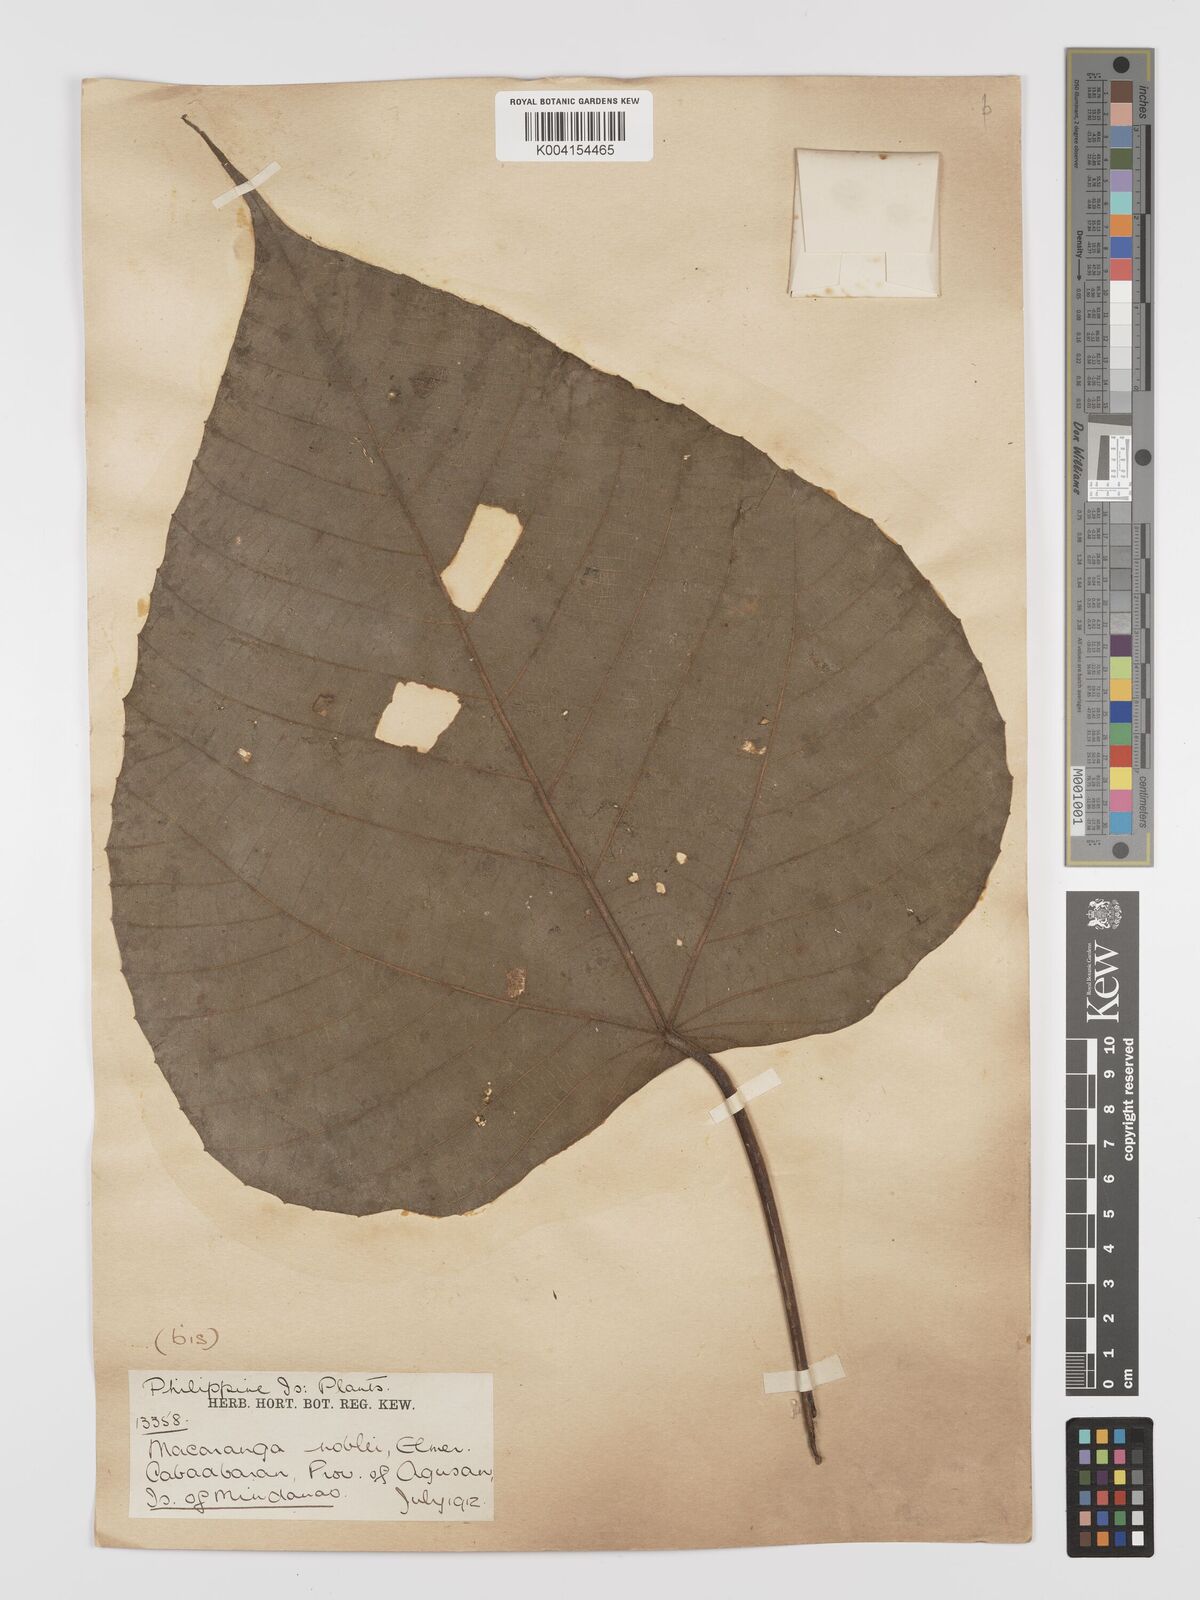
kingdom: Plantae
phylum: Tracheophyta
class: Magnoliopsida
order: Malpighiales
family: Euphorbiaceae
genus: Macaranga
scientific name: Macaranga noblei
